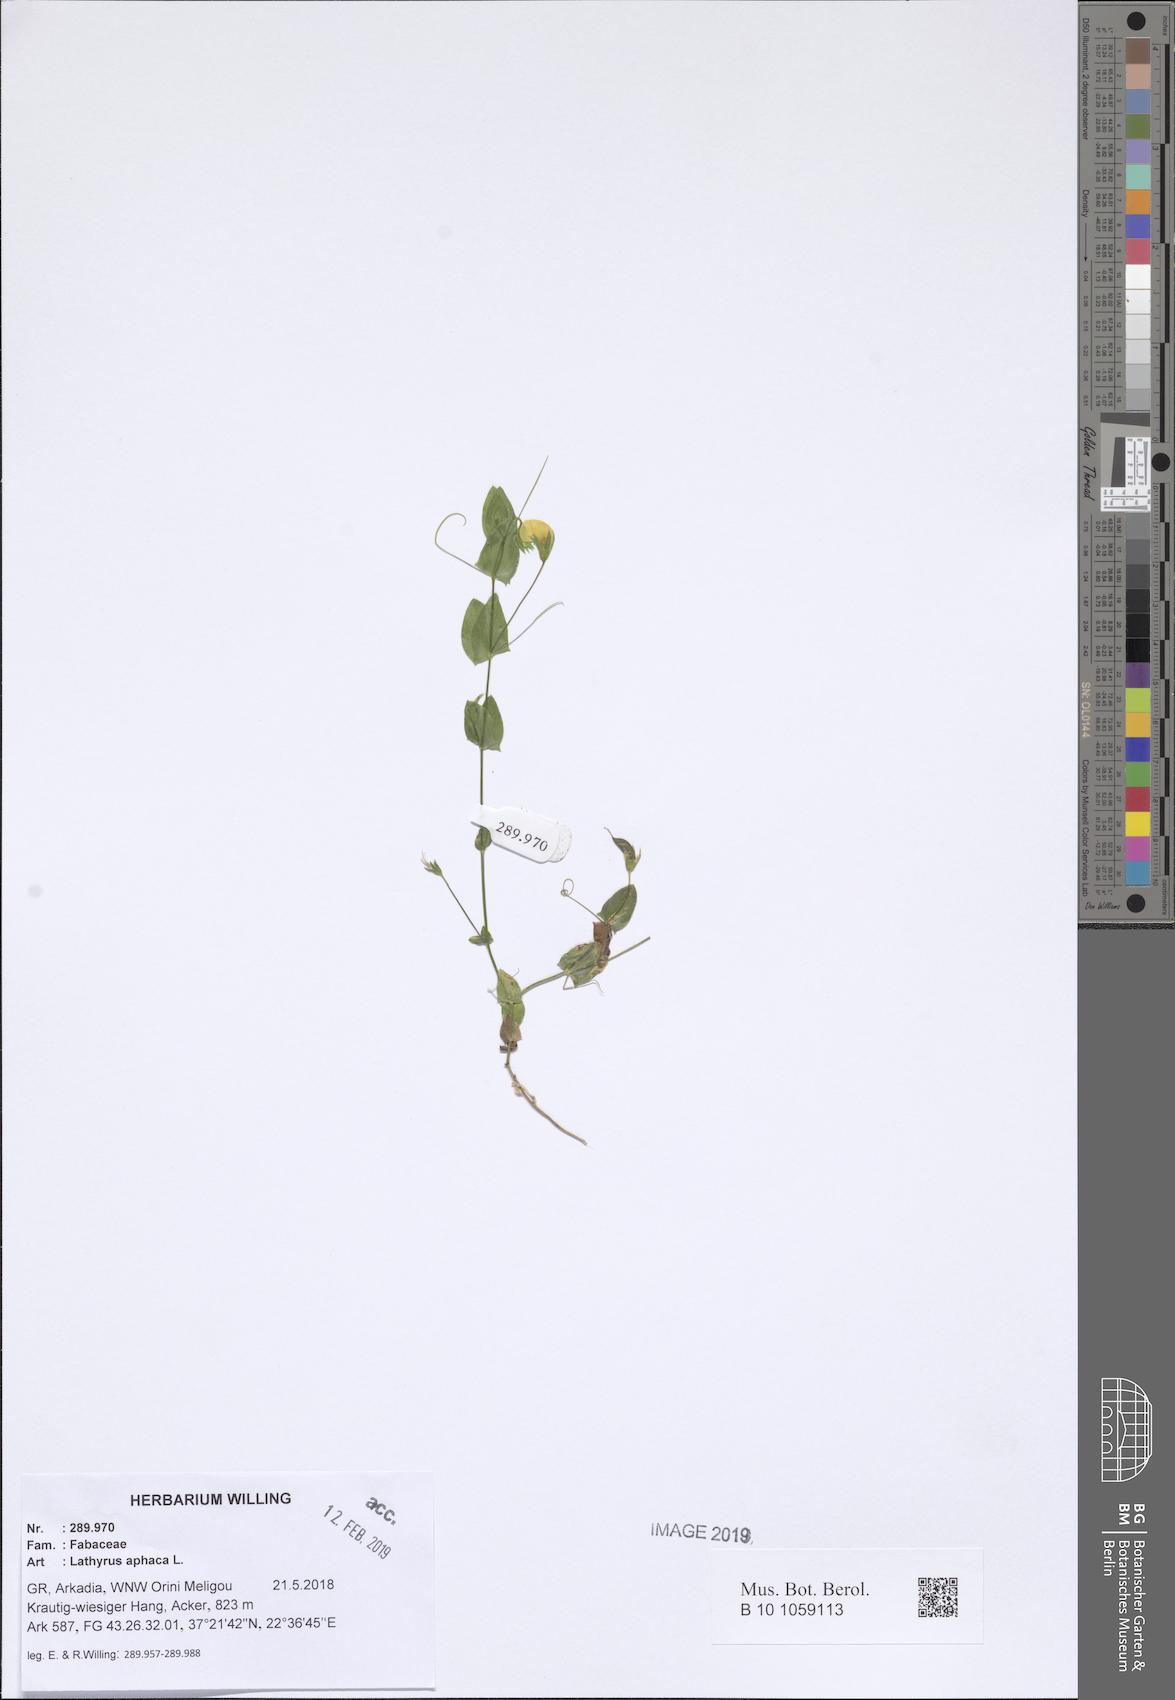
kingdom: Plantae
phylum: Tracheophyta
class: Magnoliopsida
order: Fabales
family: Fabaceae
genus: Lathyrus
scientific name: Lathyrus aphaca
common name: Yellow vetchling
